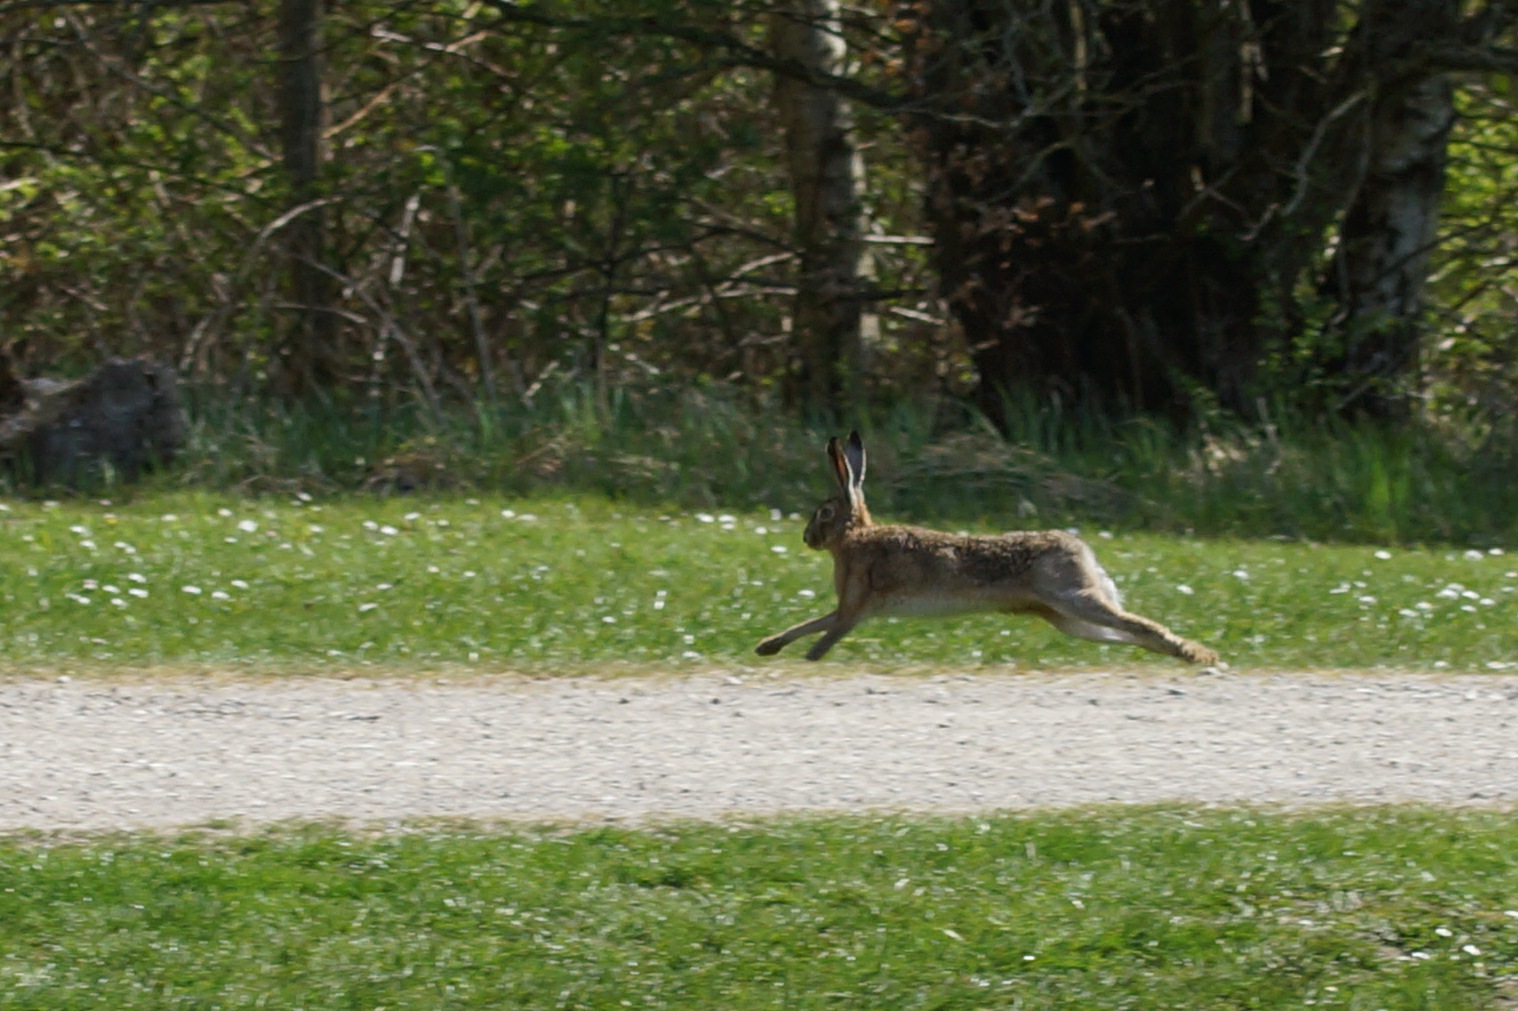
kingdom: Animalia
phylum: Chordata
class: Mammalia
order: Lagomorpha
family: Leporidae
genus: Lepus
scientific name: Lepus europaeus
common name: Hare
